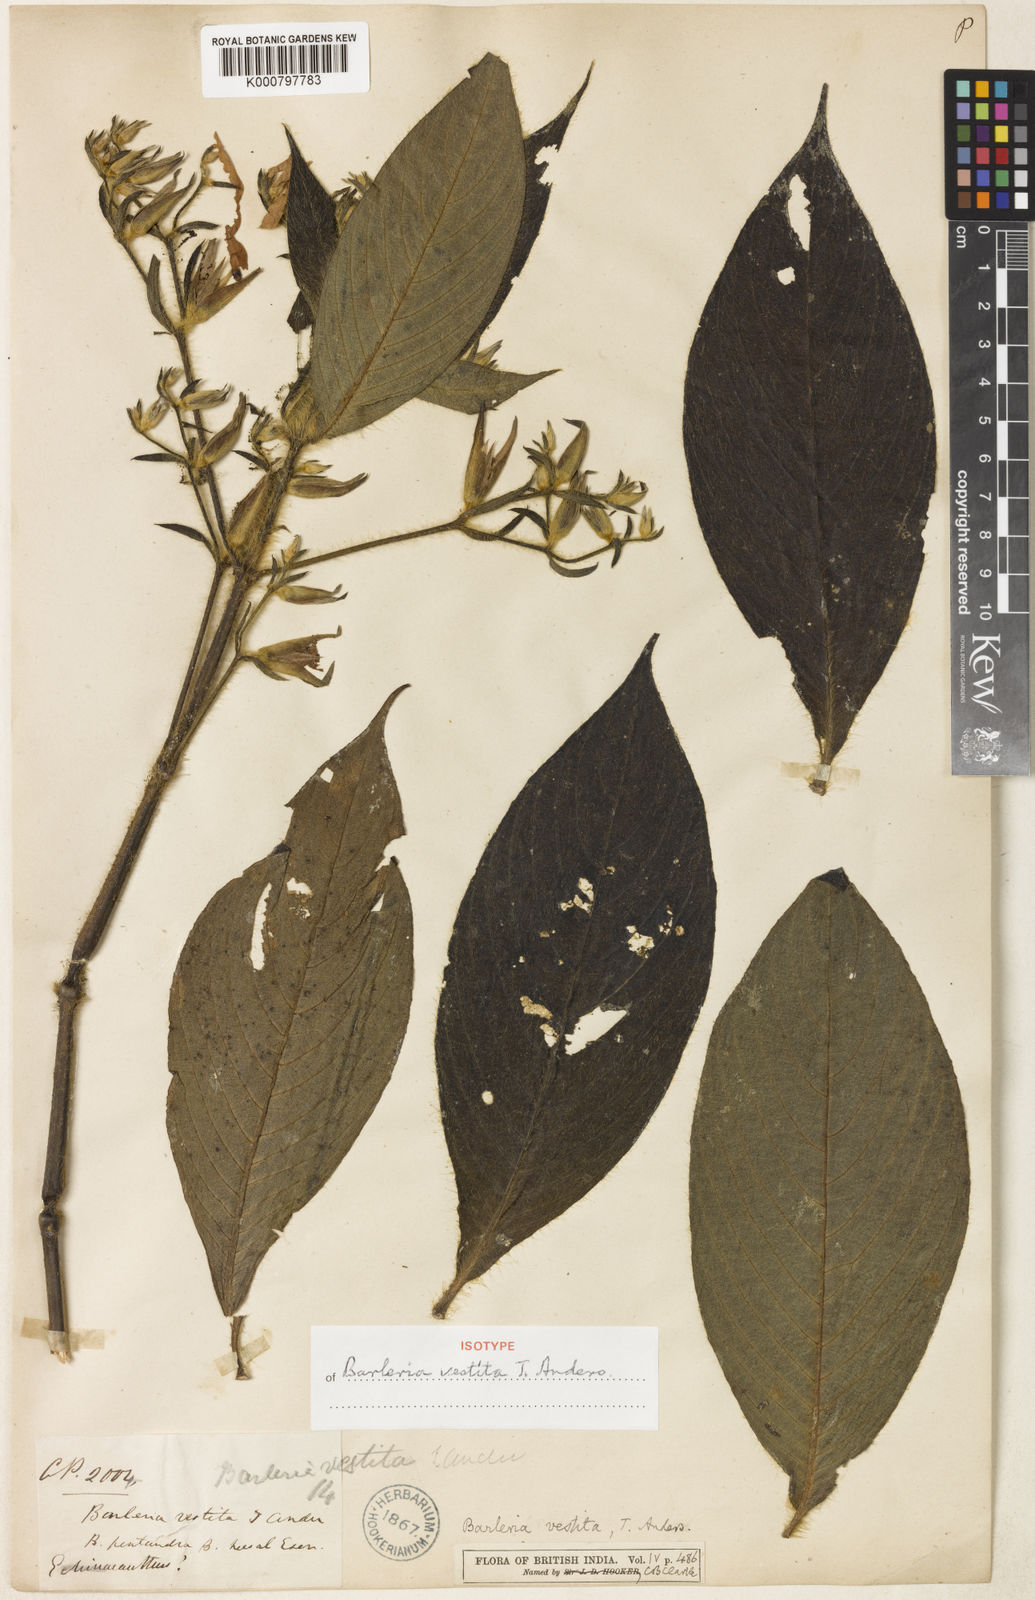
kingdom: Plantae
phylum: Tracheophyta
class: Magnoliopsida
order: Lamiales
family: Acanthaceae
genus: Barleria
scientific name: Barleria vestita
